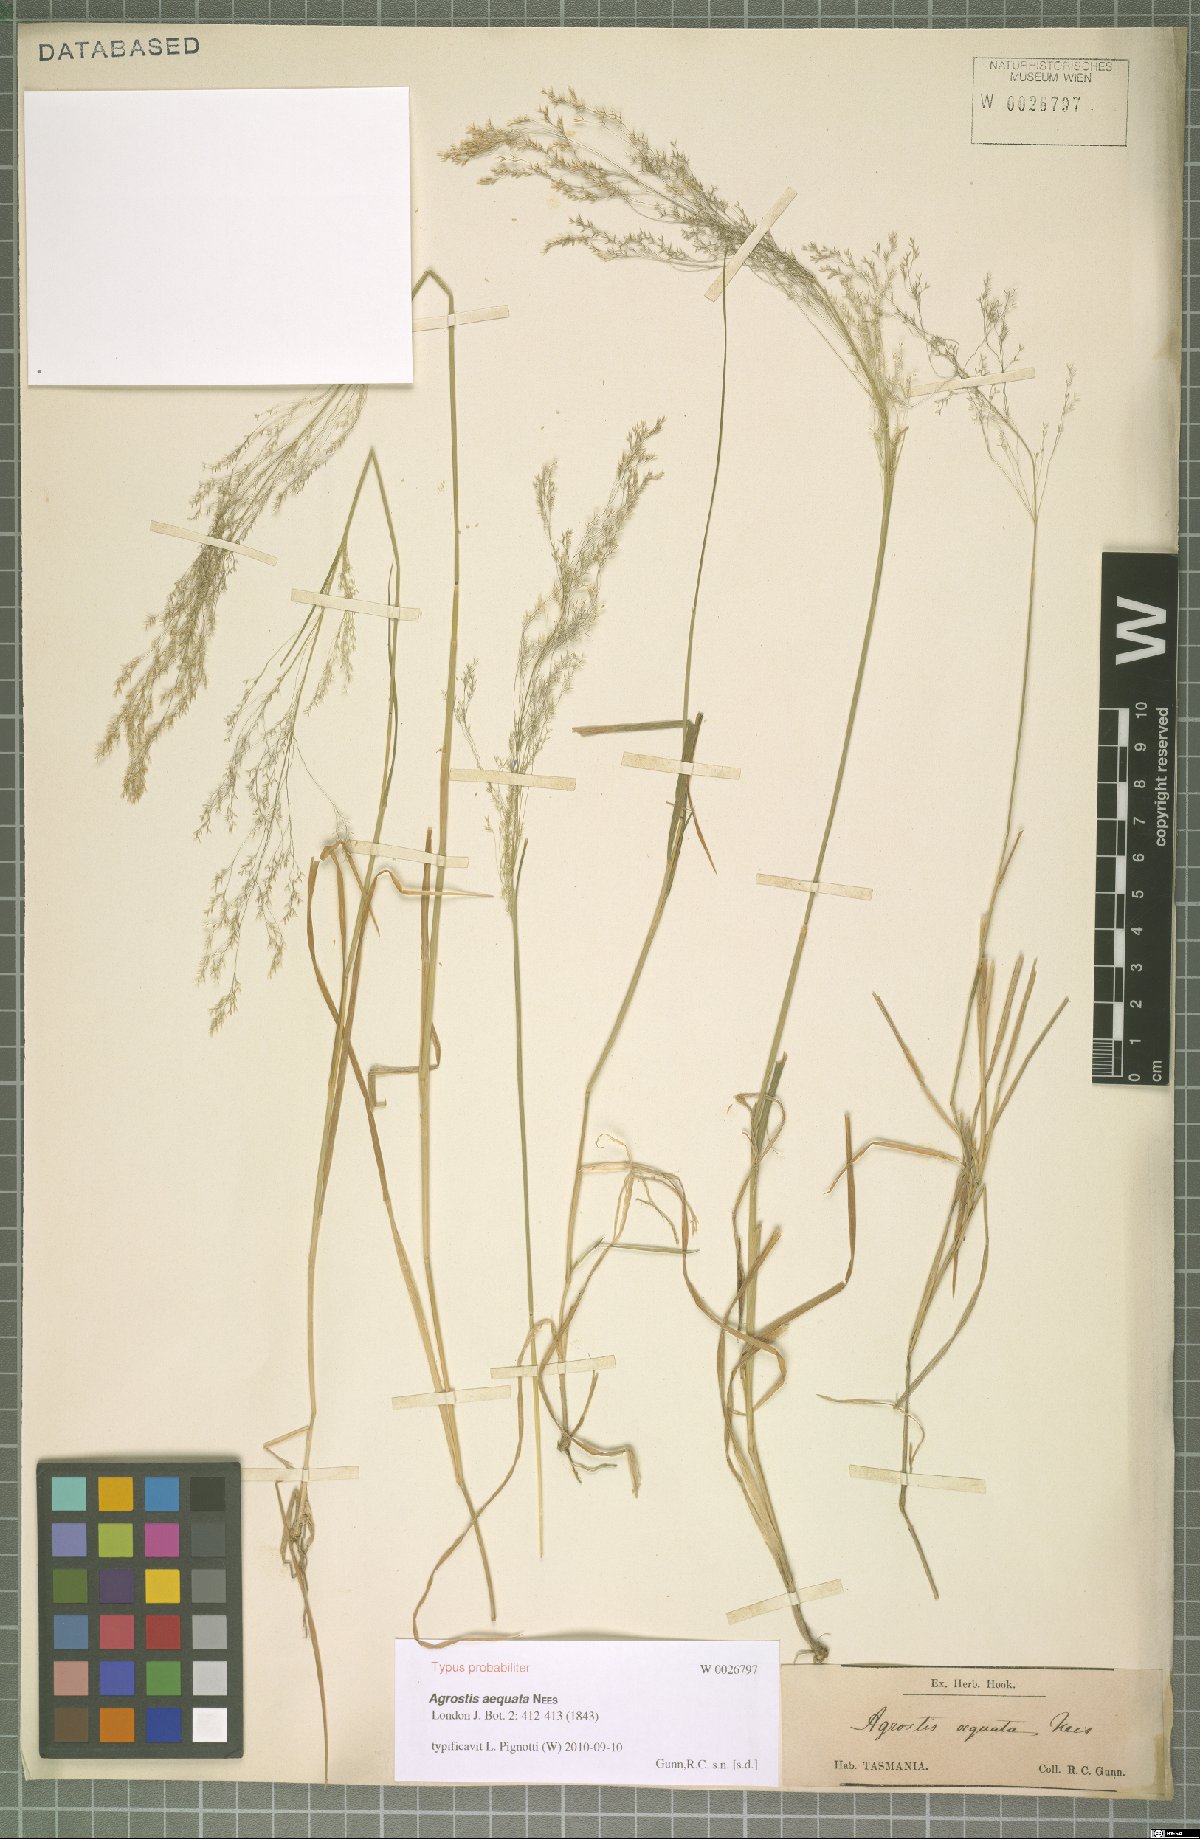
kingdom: Plantae
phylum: Tracheophyta
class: Liliopsida
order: Poales
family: Poaceae
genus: Lachnagrostis
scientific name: Lachnagrostis rudis
